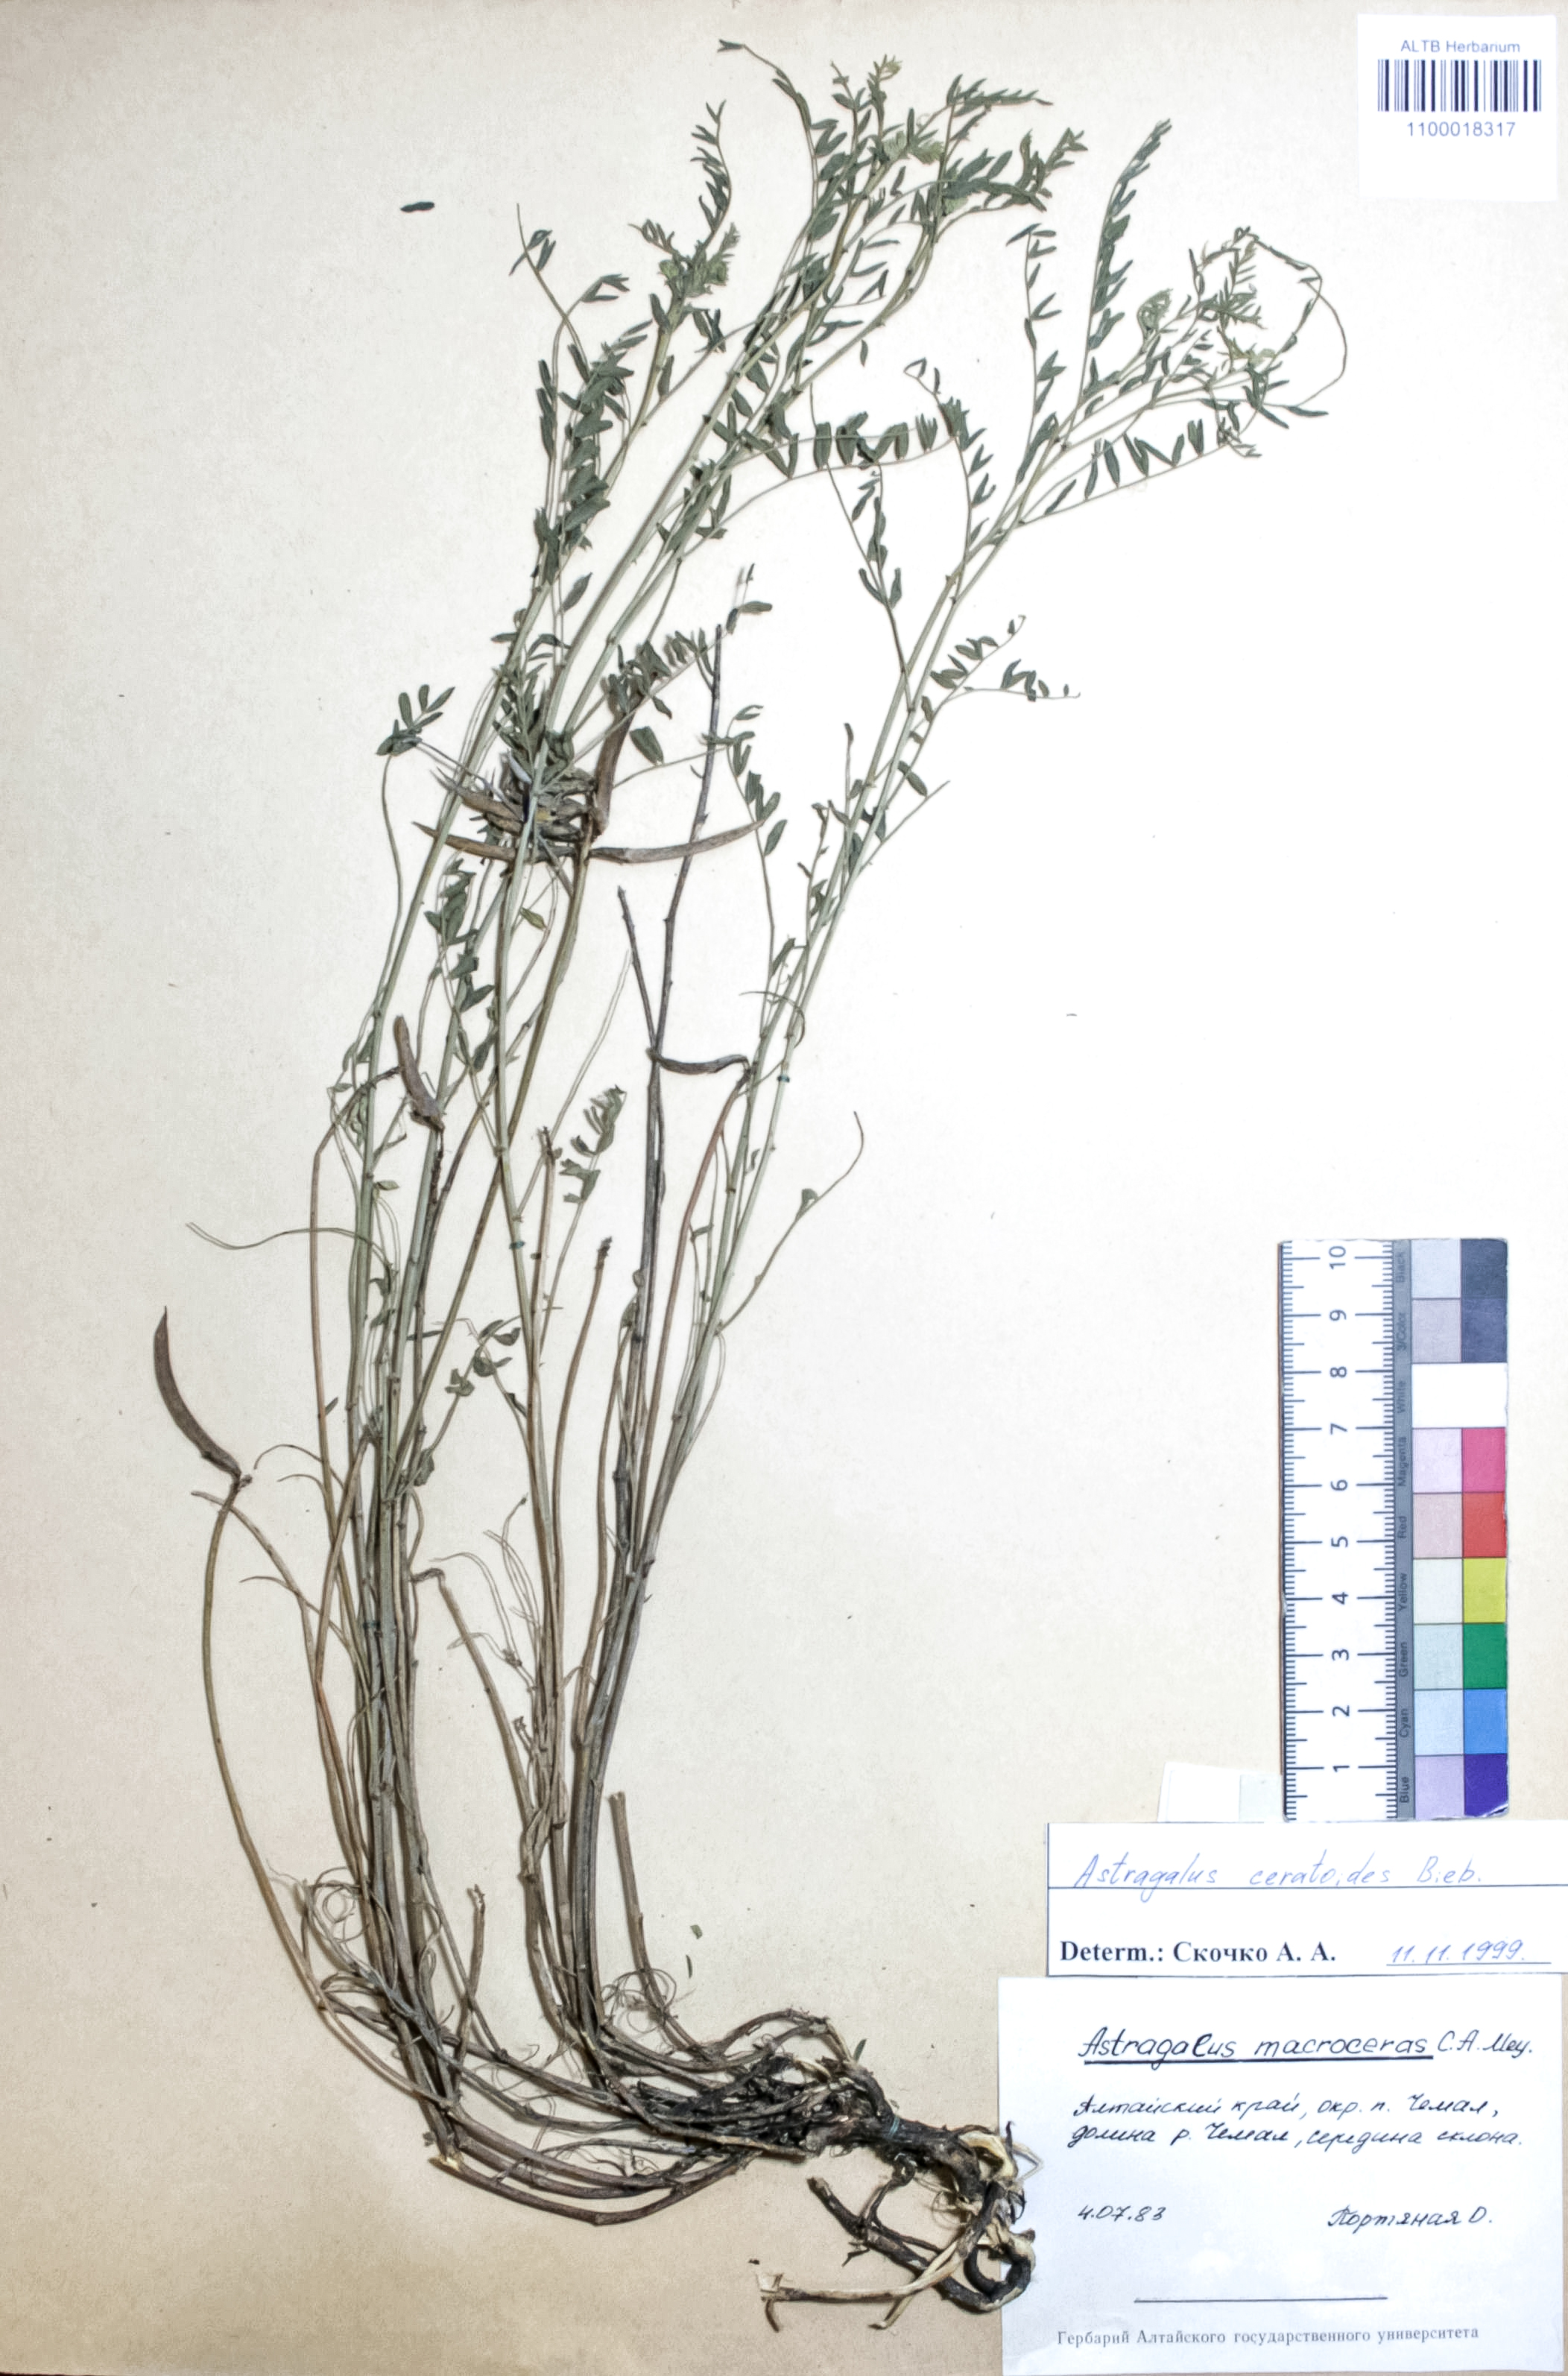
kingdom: Plantae
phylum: Tracheophyta
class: Magnoliopsida
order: Fabales
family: Fabaceae
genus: Astragalus
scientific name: Astragalus ceratoides
